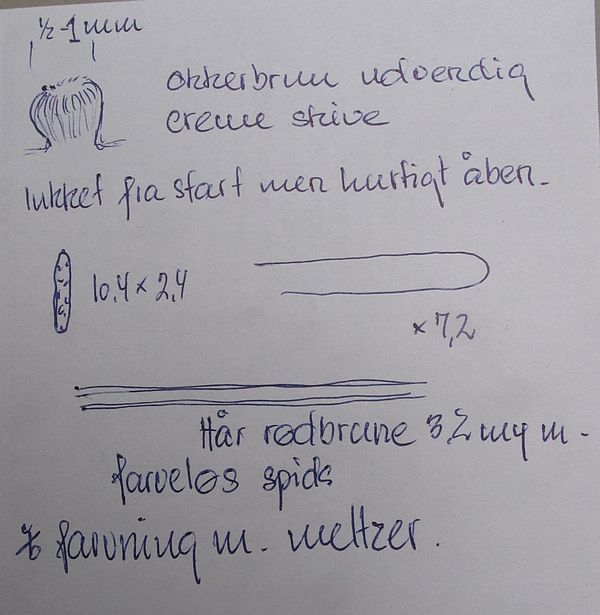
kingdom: Fungi
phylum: Ascomycota
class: Leotiomycetes
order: Helotiales
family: Hyaloscyphaceae
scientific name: Hyaloscyphaceae
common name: frynseskivefamilien
